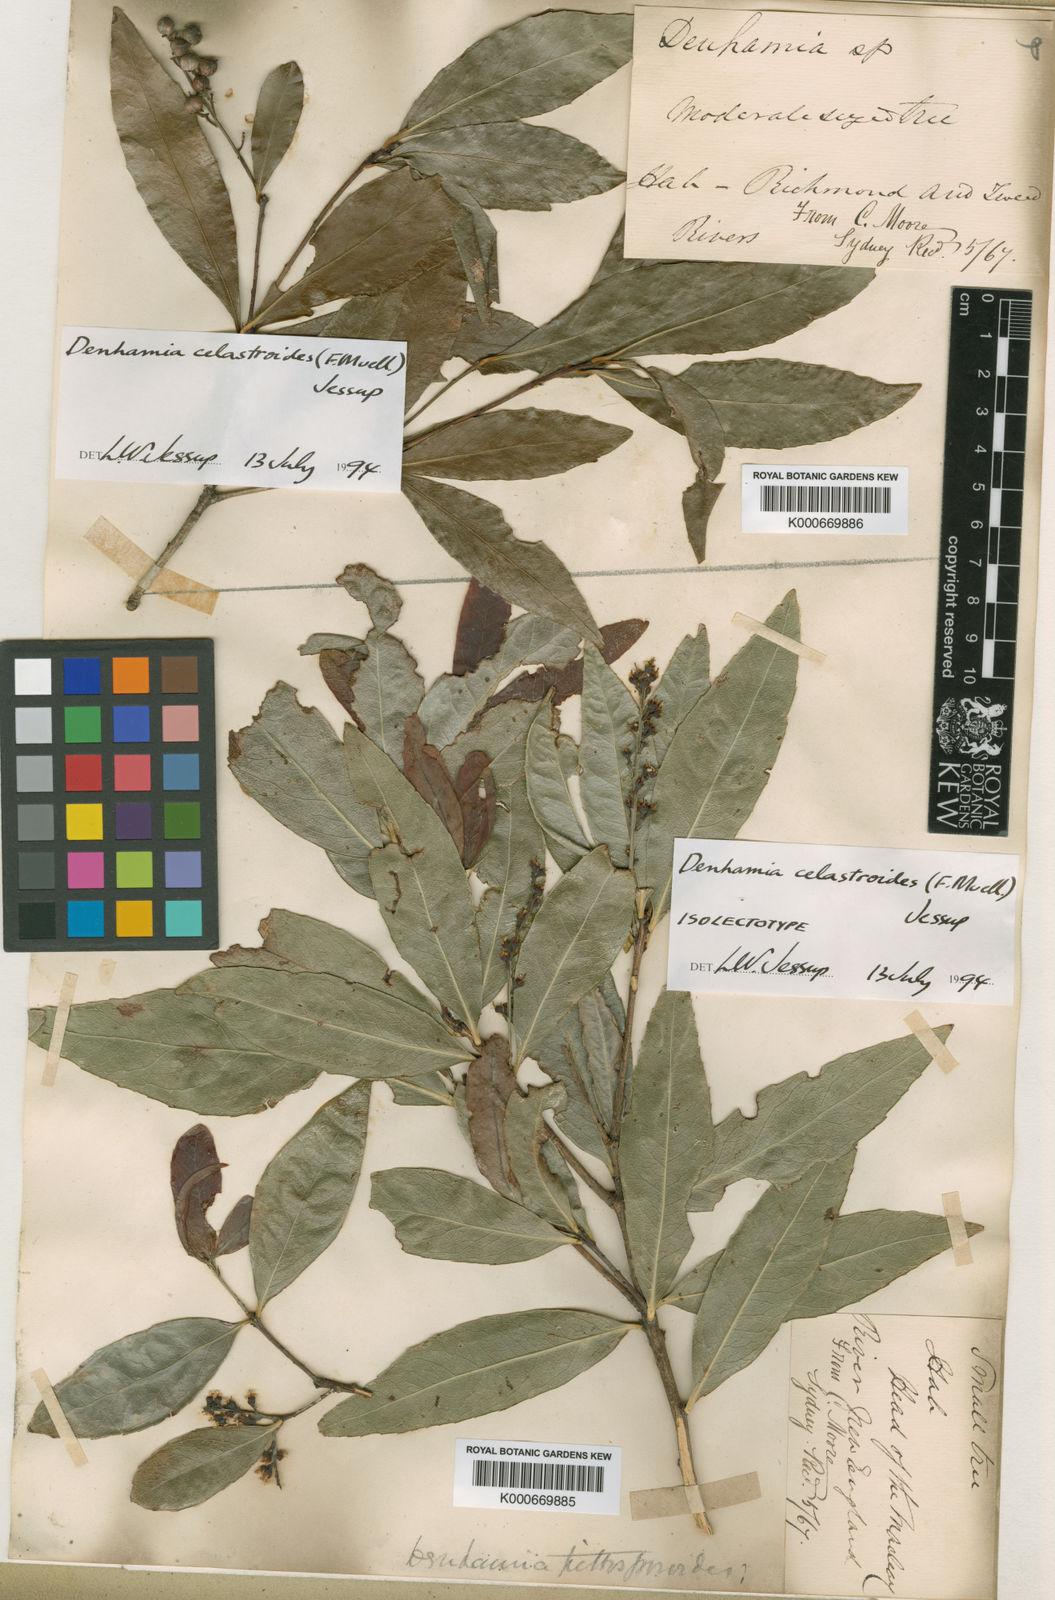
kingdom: Plantae
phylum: Tracheophyta
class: Magnoliopsida
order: Celastrales
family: Celastraceae
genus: Denhamia
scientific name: Denhamia celastroides
